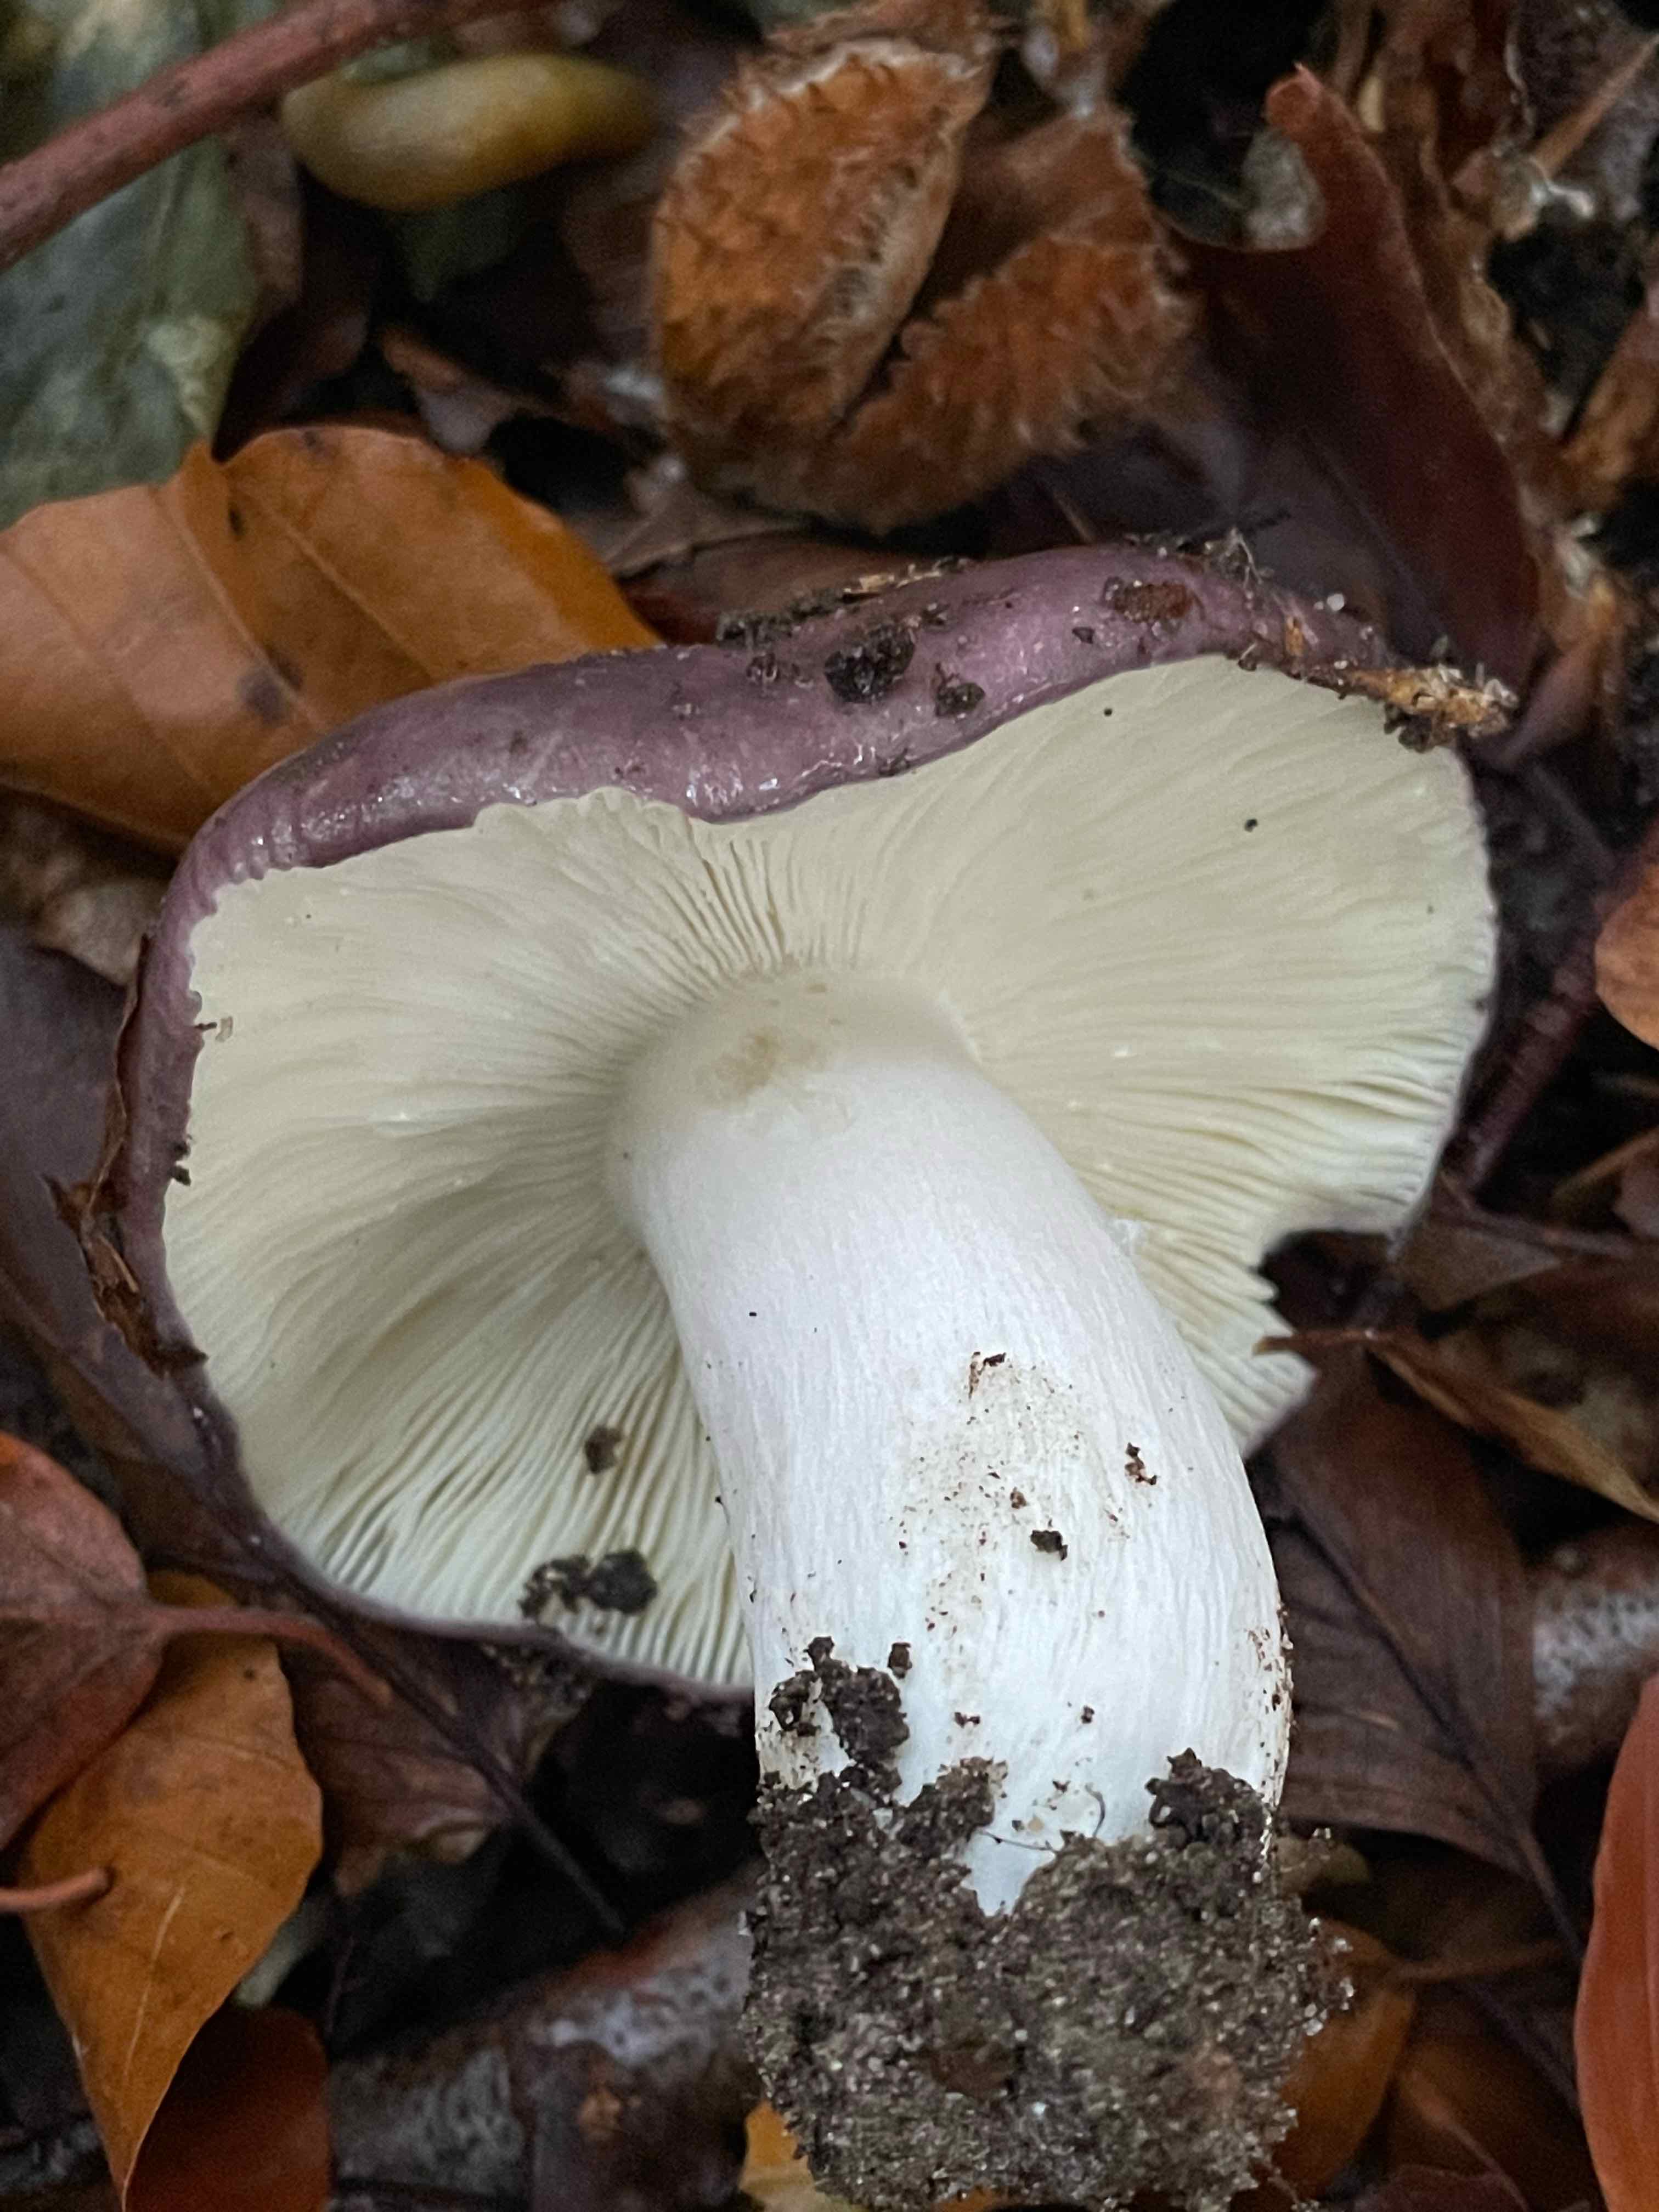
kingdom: Fungi
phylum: Basidiomycota
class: Agaricomycetes
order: Russulales
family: Russulaceae
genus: Russula
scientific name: Russula cyanoxantha
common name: broget skørhat
